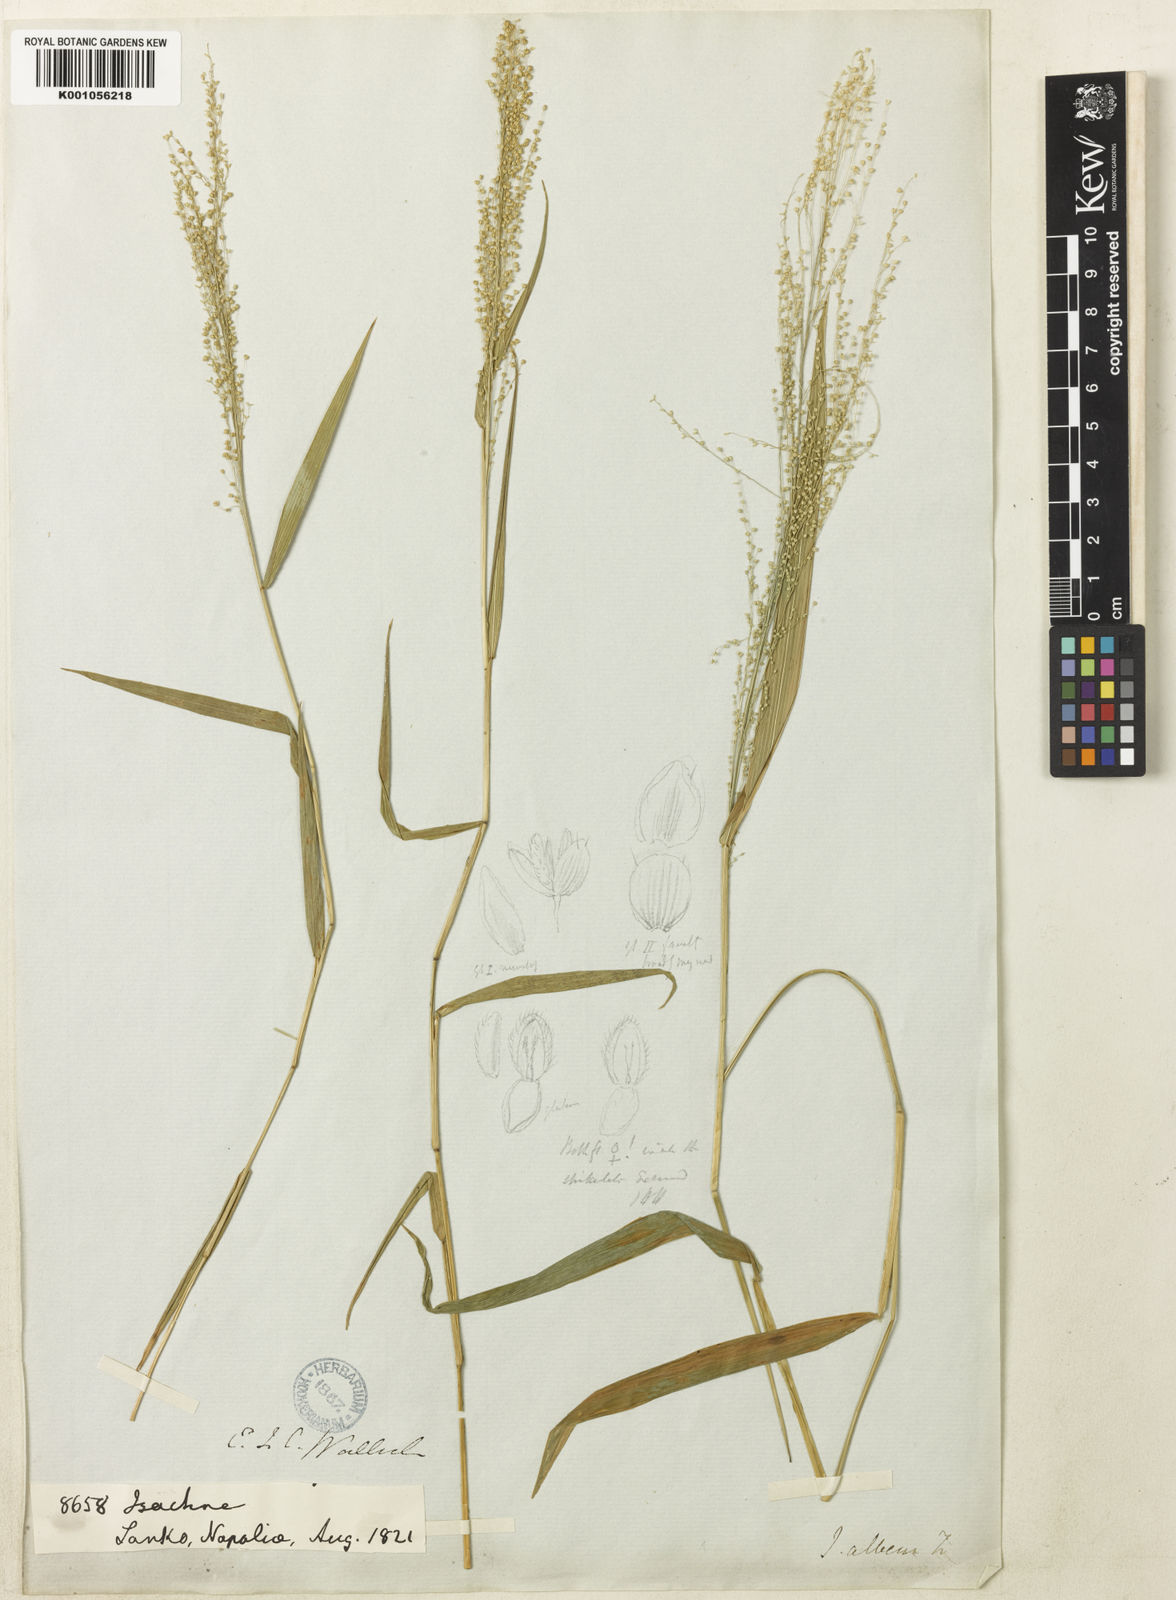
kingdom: Plantae
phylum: Tracheophyta
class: Liliopsida
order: Poales
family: Poaceae
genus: Isachne
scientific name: Isachne albens
